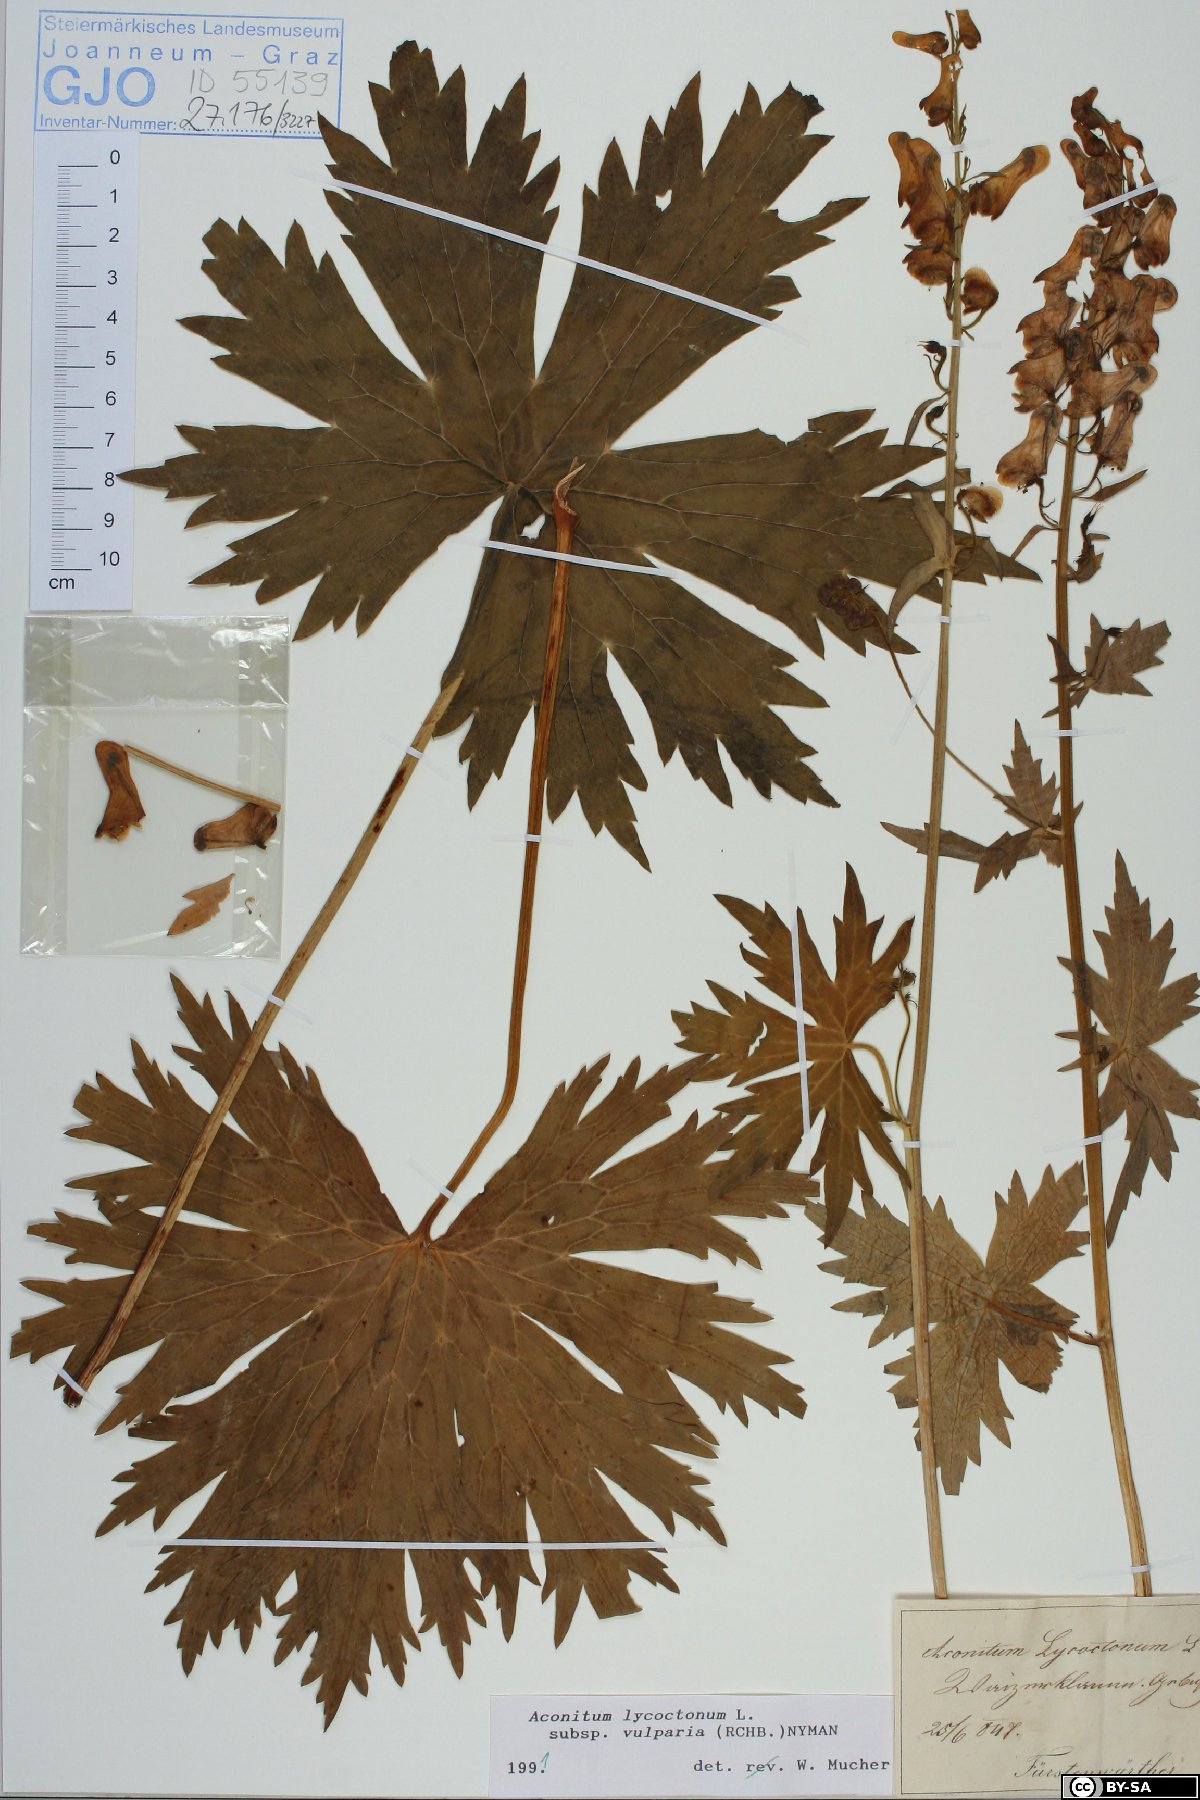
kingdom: Plantae
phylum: Tracheophyta
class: Magnoliopsida
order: Ranunculales
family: Ranunculaceae
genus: Aconitum
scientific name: Aconitum lycoctonum
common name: Wolf's-bane
